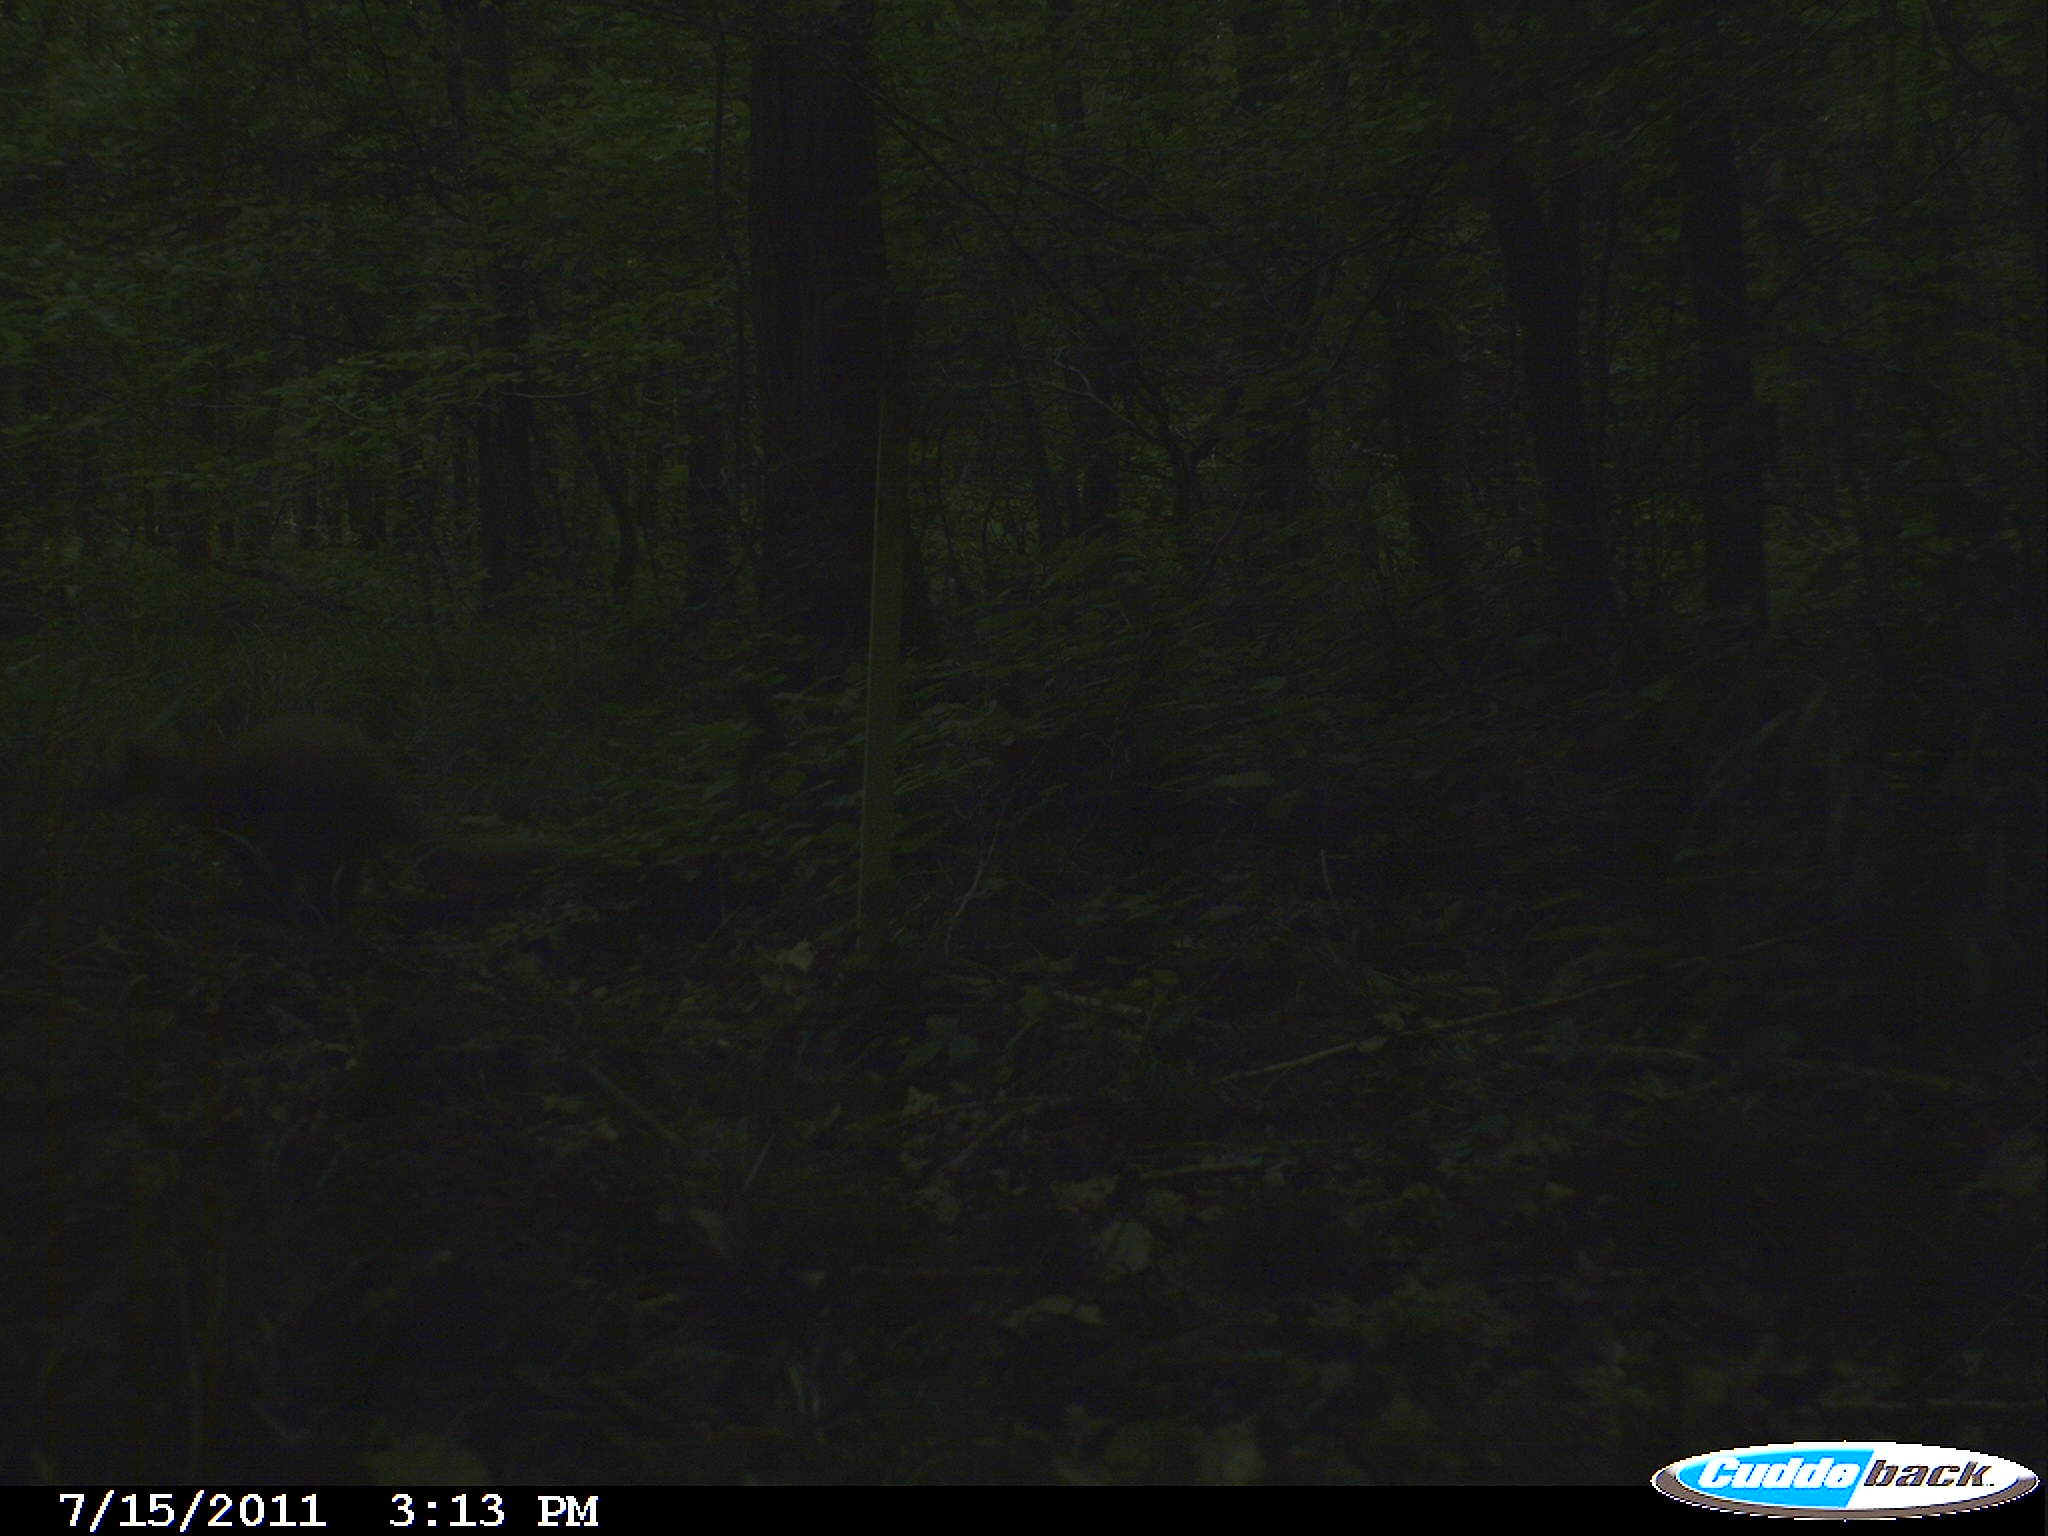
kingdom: Animalia
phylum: Chordata
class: Mammalia
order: Carnivora
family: Mustelidae
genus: Martes
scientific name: Martes
